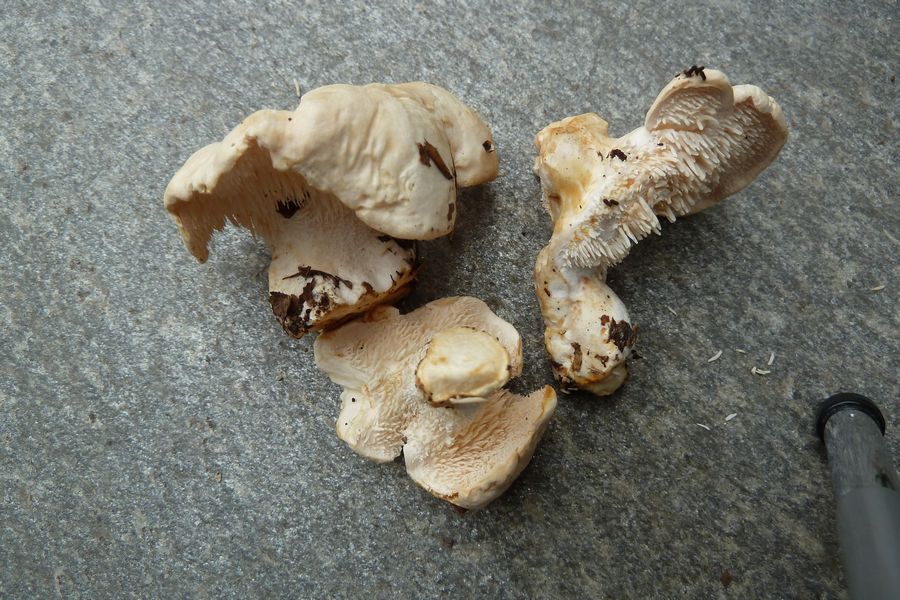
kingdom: Fungi
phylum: Basidiomycota
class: Agaricomycetes
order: Cantharellales
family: Hydnaceae
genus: Hydnum
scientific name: Hydnum repandum
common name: almindelig pigsvamp
